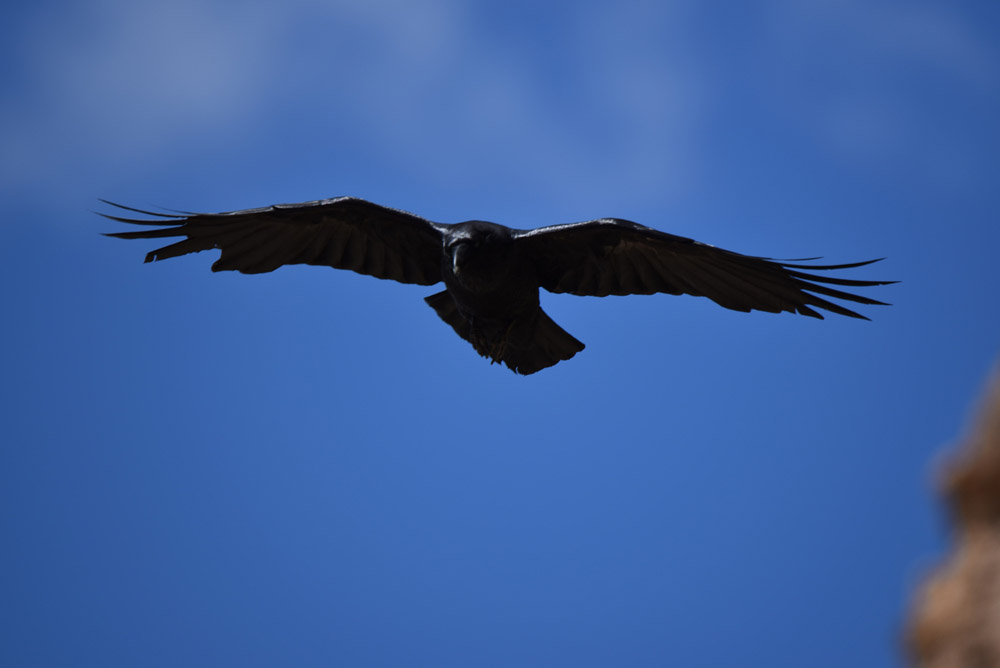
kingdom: Animalia
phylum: Chordata
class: Aves
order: Passeriformes
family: Corvidae
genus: Corvus
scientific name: Corvus corax
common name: Common raven
